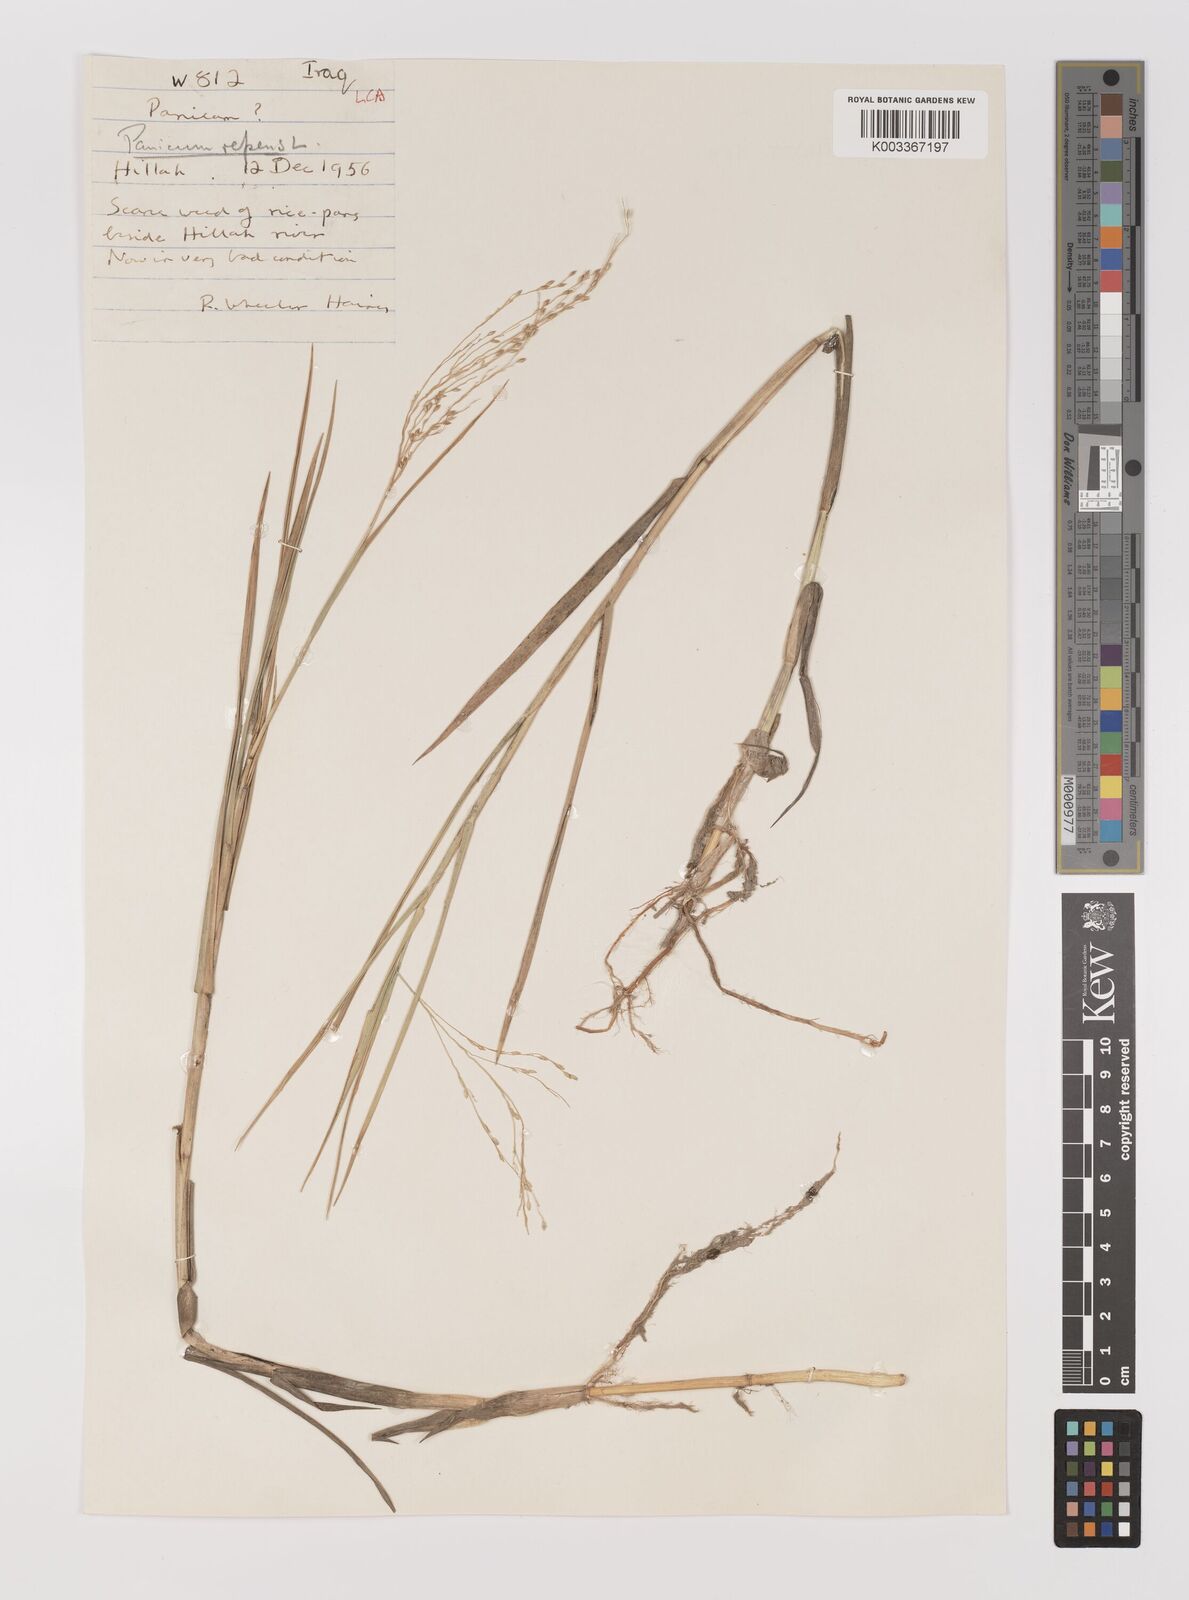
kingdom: Plantae
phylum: Tracheophyta
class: Liliopsida
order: Poales
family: Poaceae
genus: Panicum
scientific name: Panicum repens
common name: Torpedo grass
